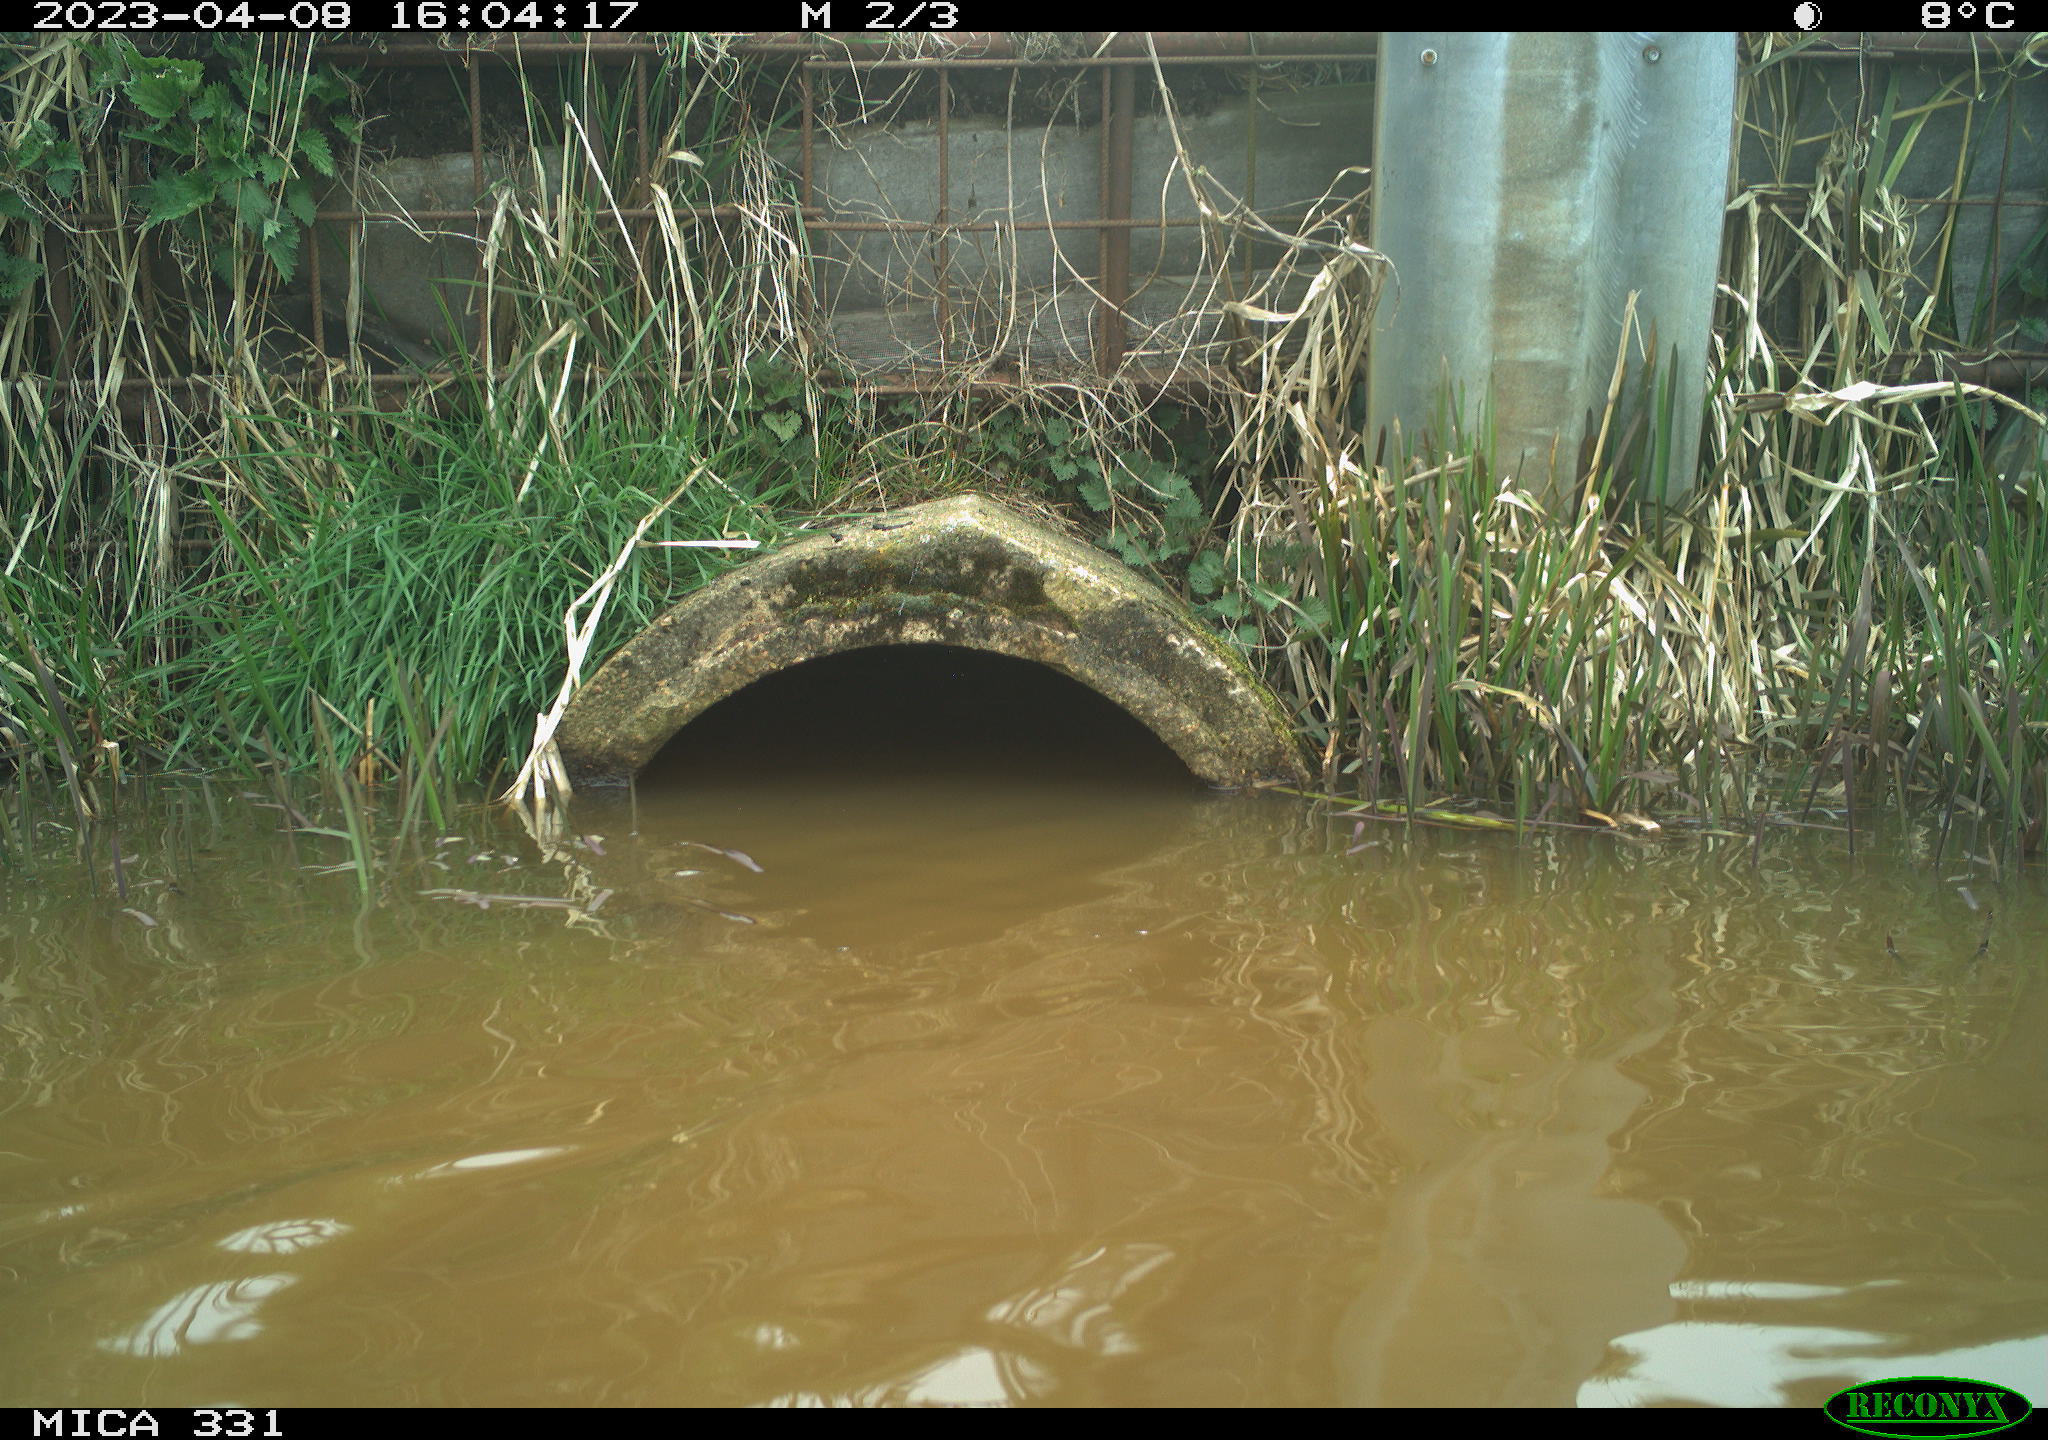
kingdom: Animalia
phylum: Chordata
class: Aves
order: Gruiformes
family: Rallidae
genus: Fulica
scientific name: Fulica atra
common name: Eurasian coot
